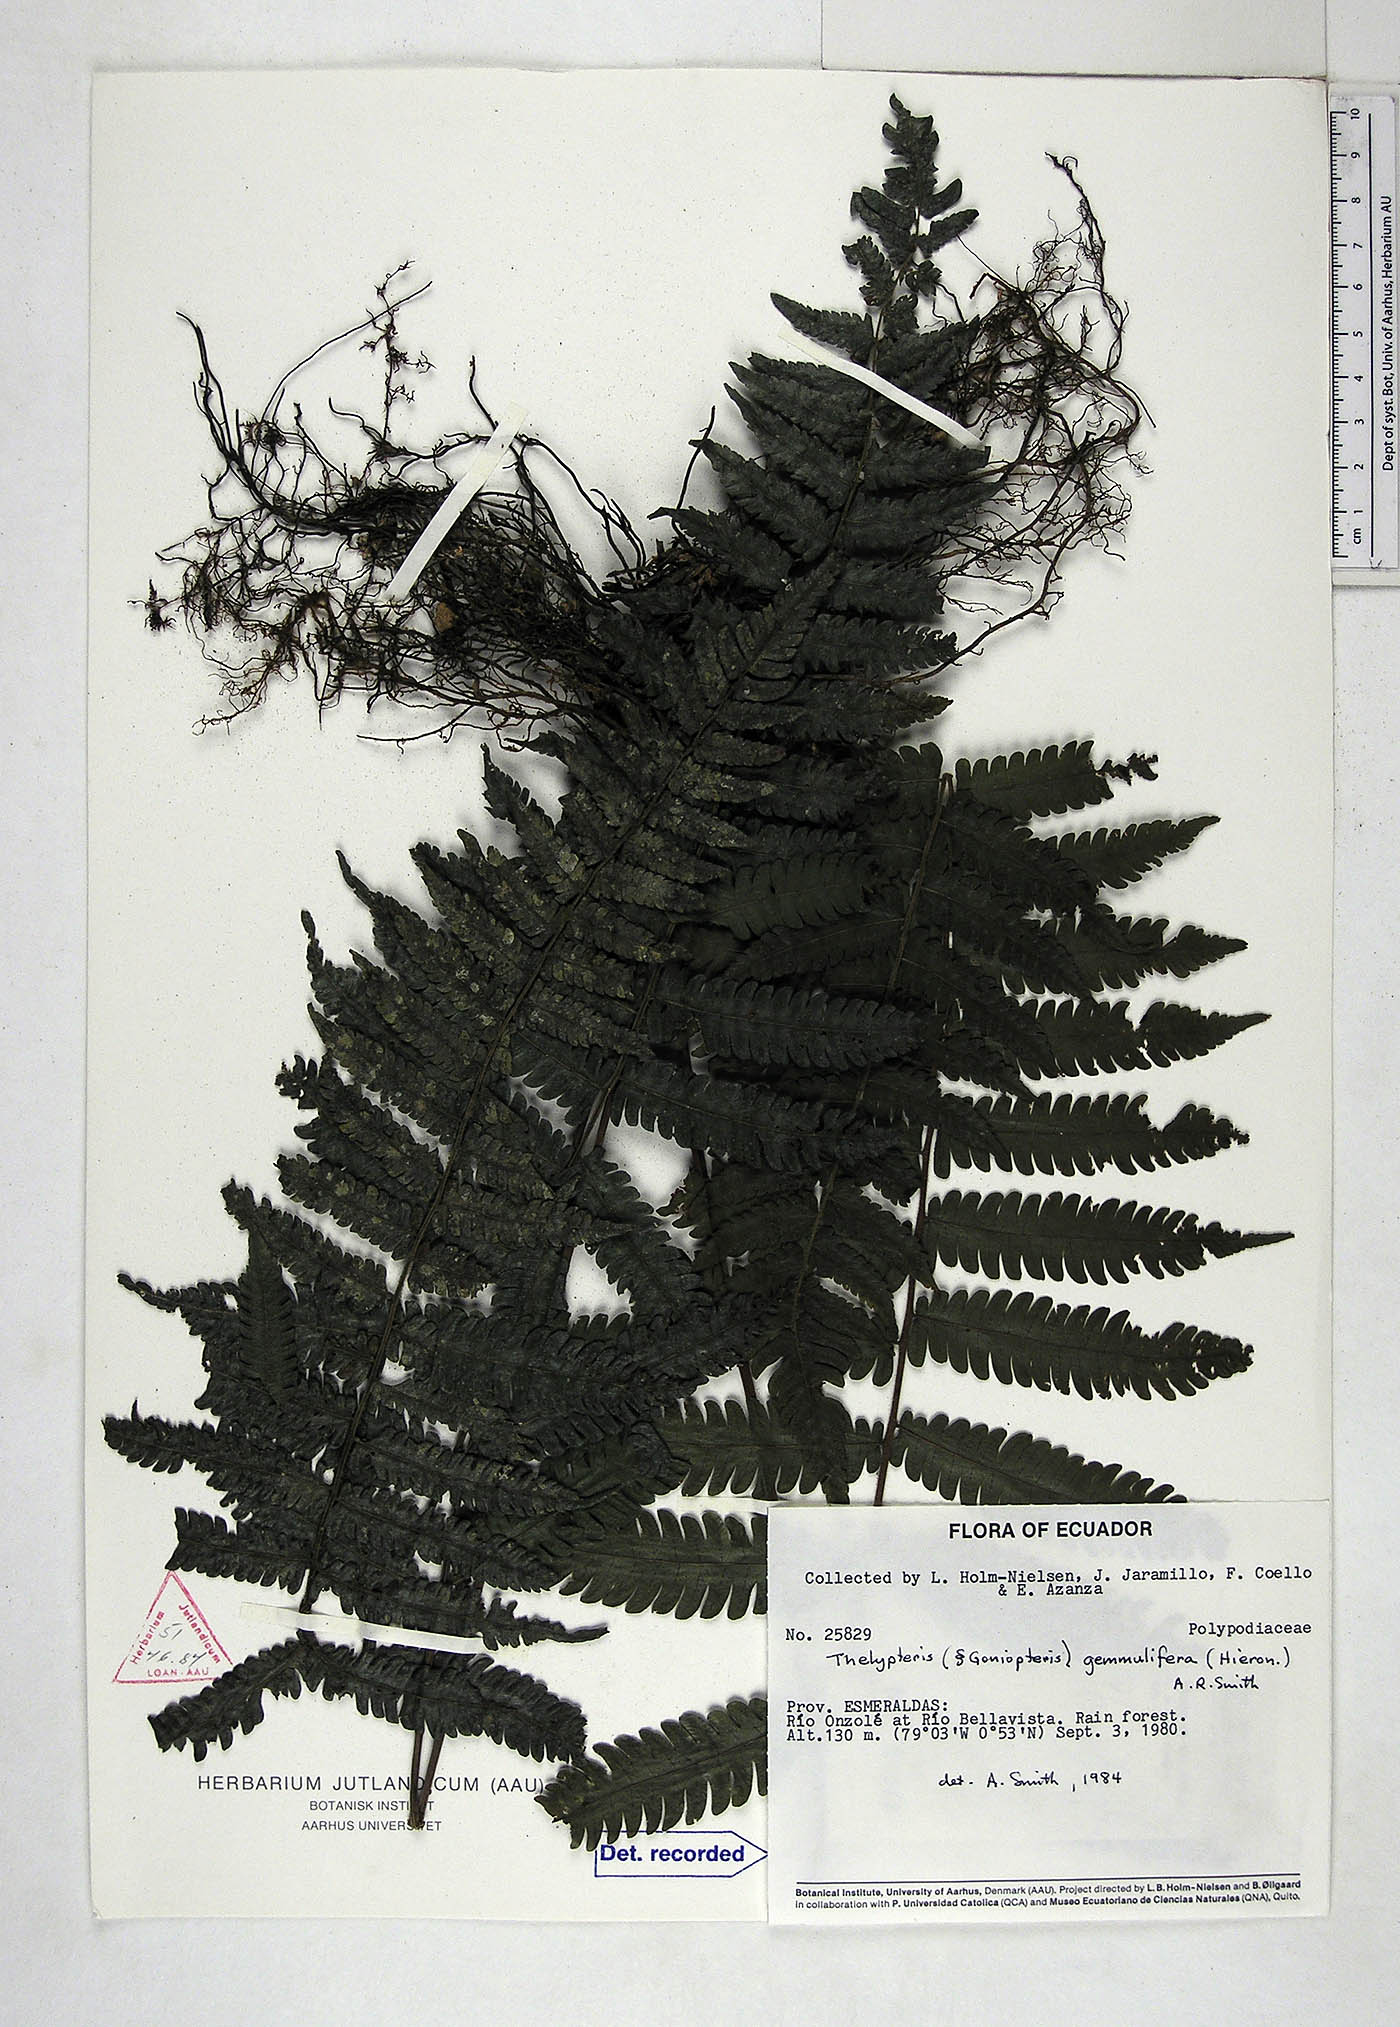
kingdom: Plantae
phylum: Tracheophyta
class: Polypodiopsida
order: Polypodiales
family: Thelypteridaceae
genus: Goniopteris
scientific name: Goniopteris gemmulifera
